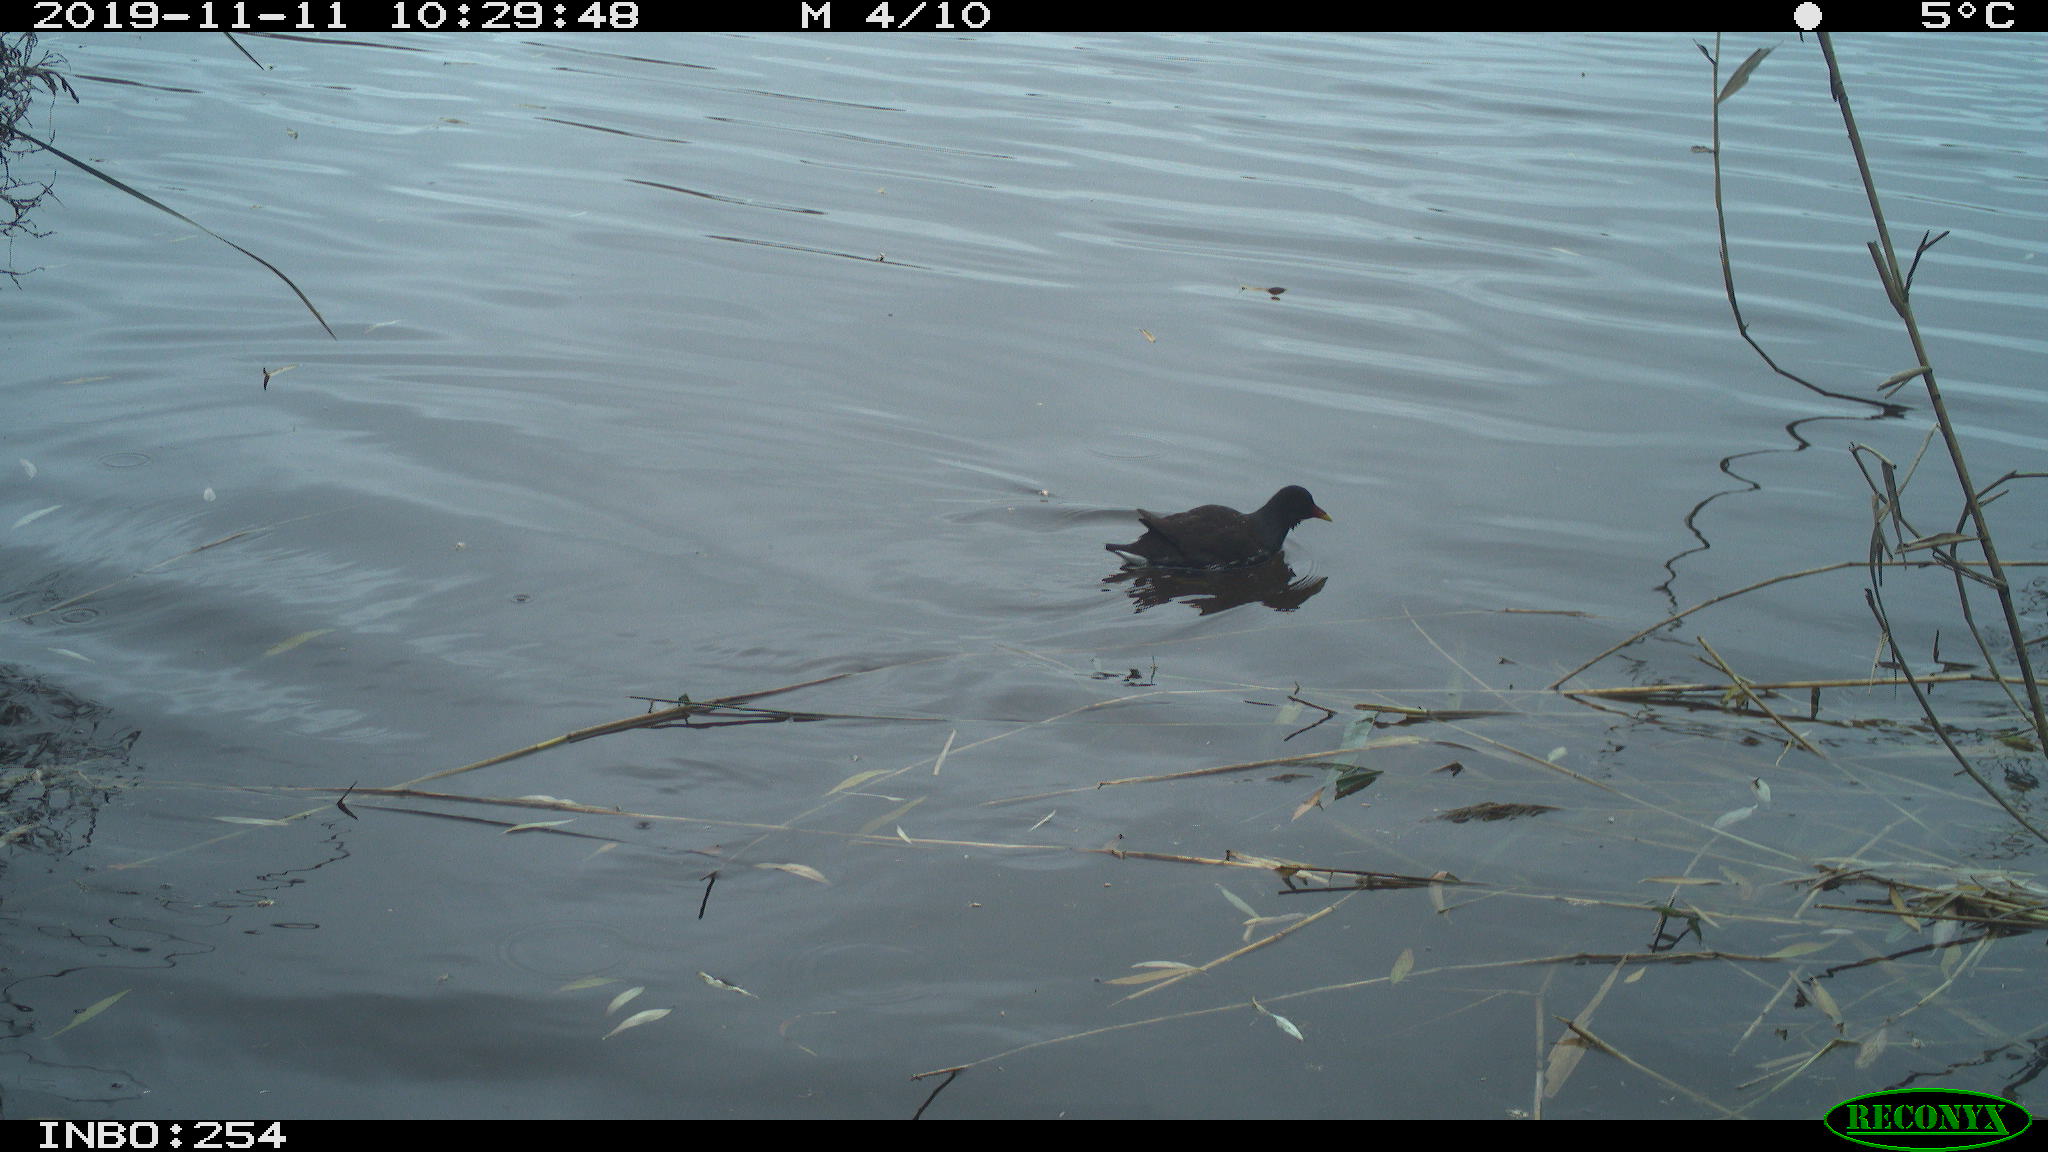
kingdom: Animalia
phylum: Chordata
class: Aves
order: Gruiformes
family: Rallidae
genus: Gallinula
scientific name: Gallinula chloropus
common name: Common moorhen
